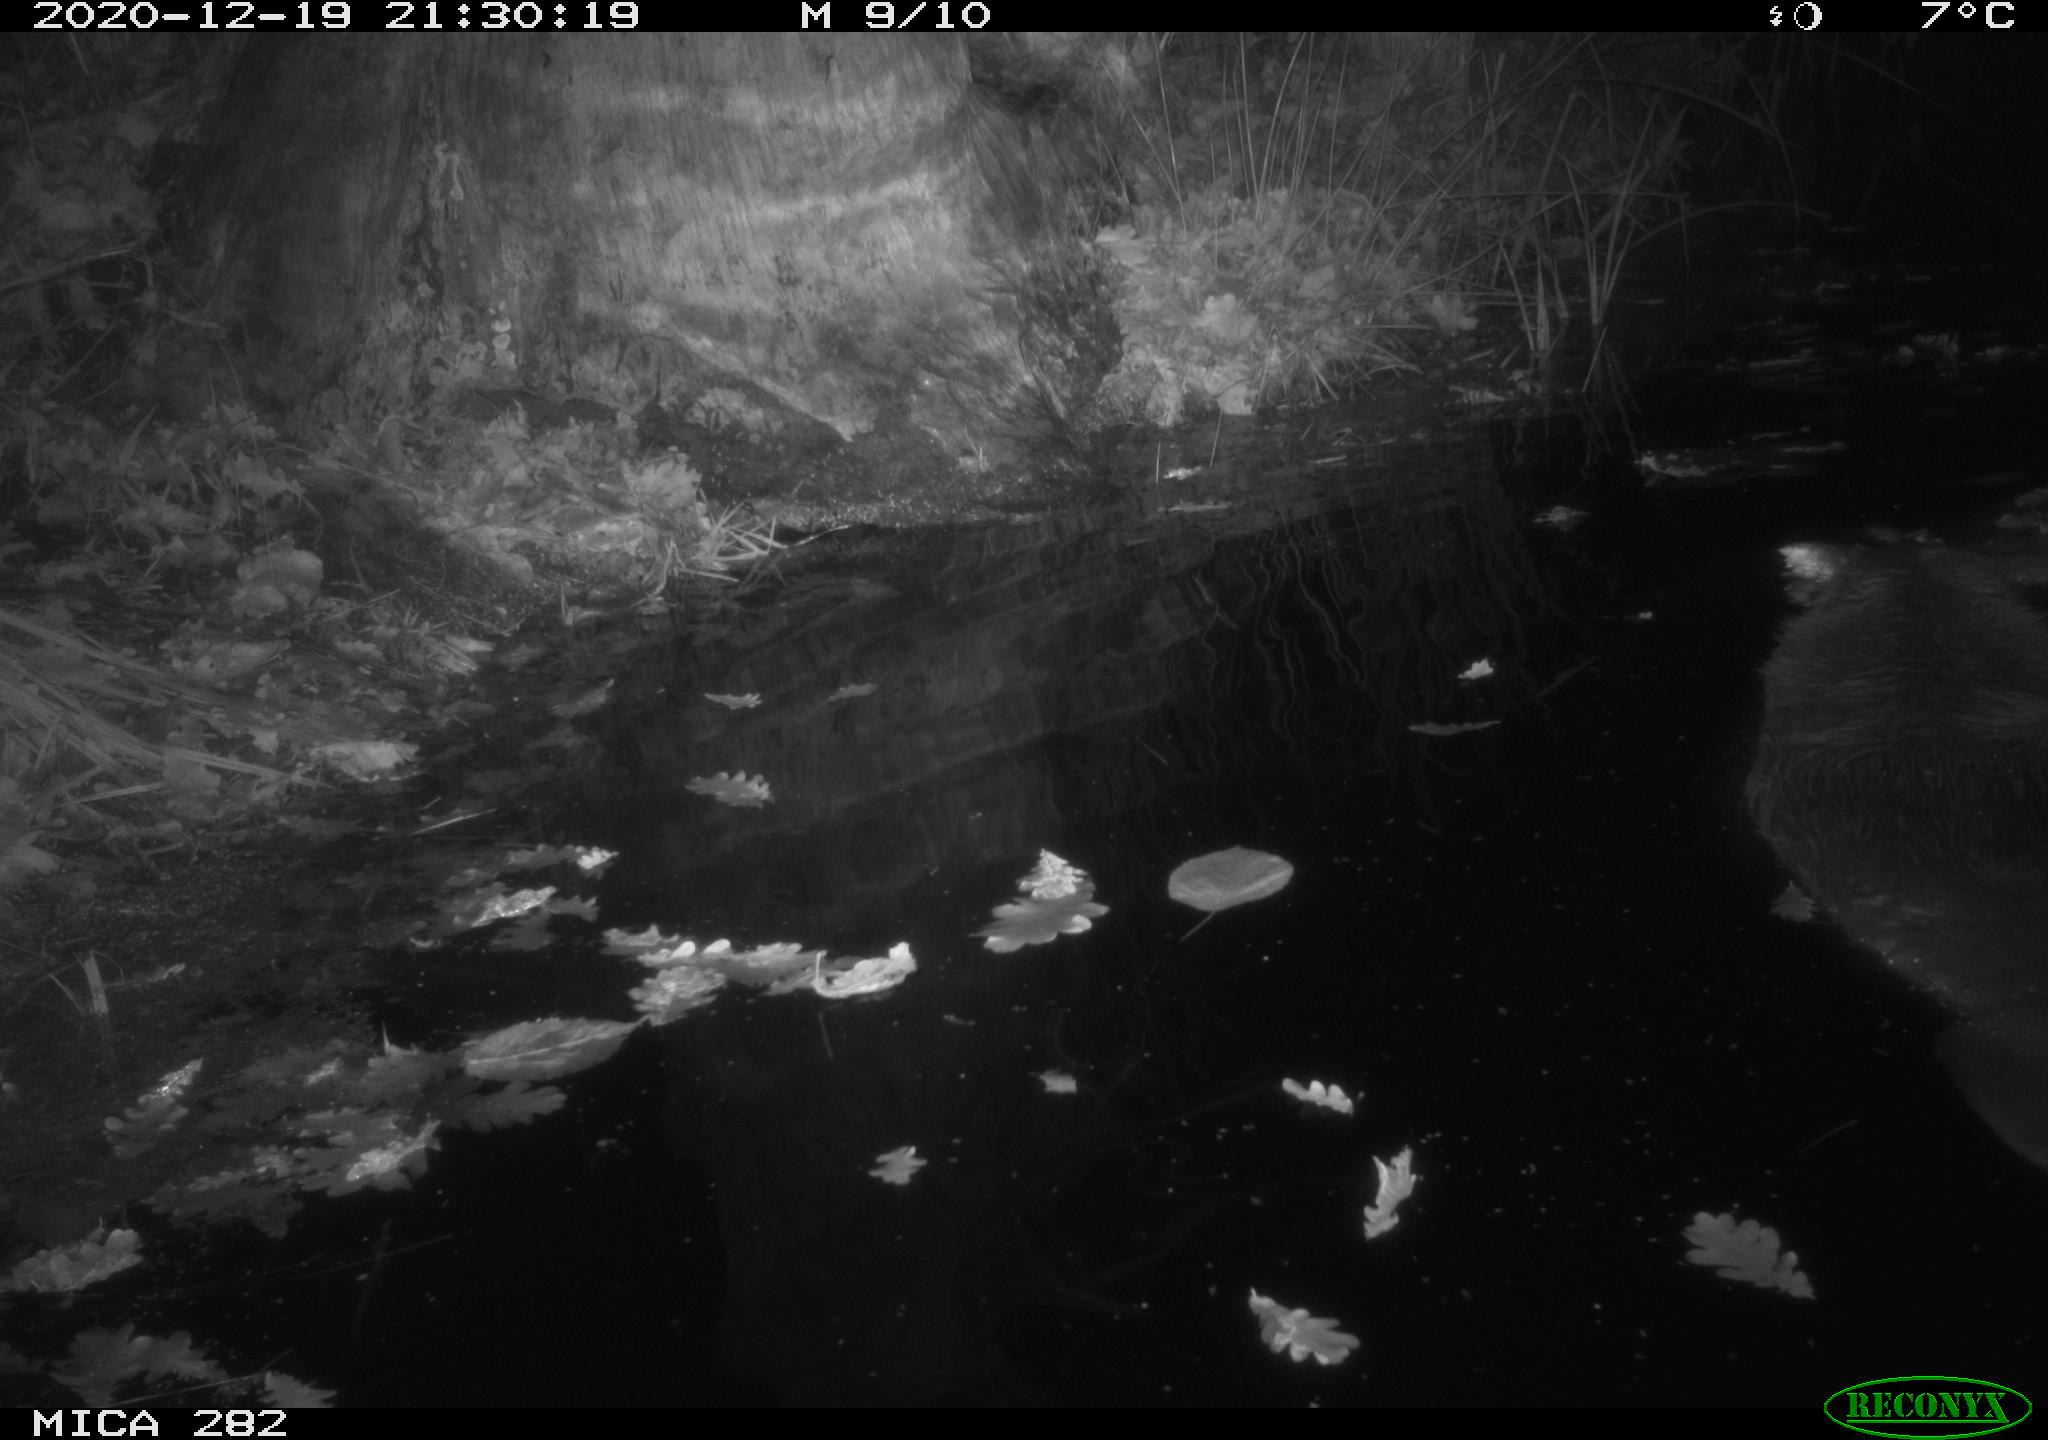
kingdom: Animalia
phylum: Chordata
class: Mammalia
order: Rodentia
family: Castoridae
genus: Castor
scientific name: Castor fiber
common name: Eurasian beaver
